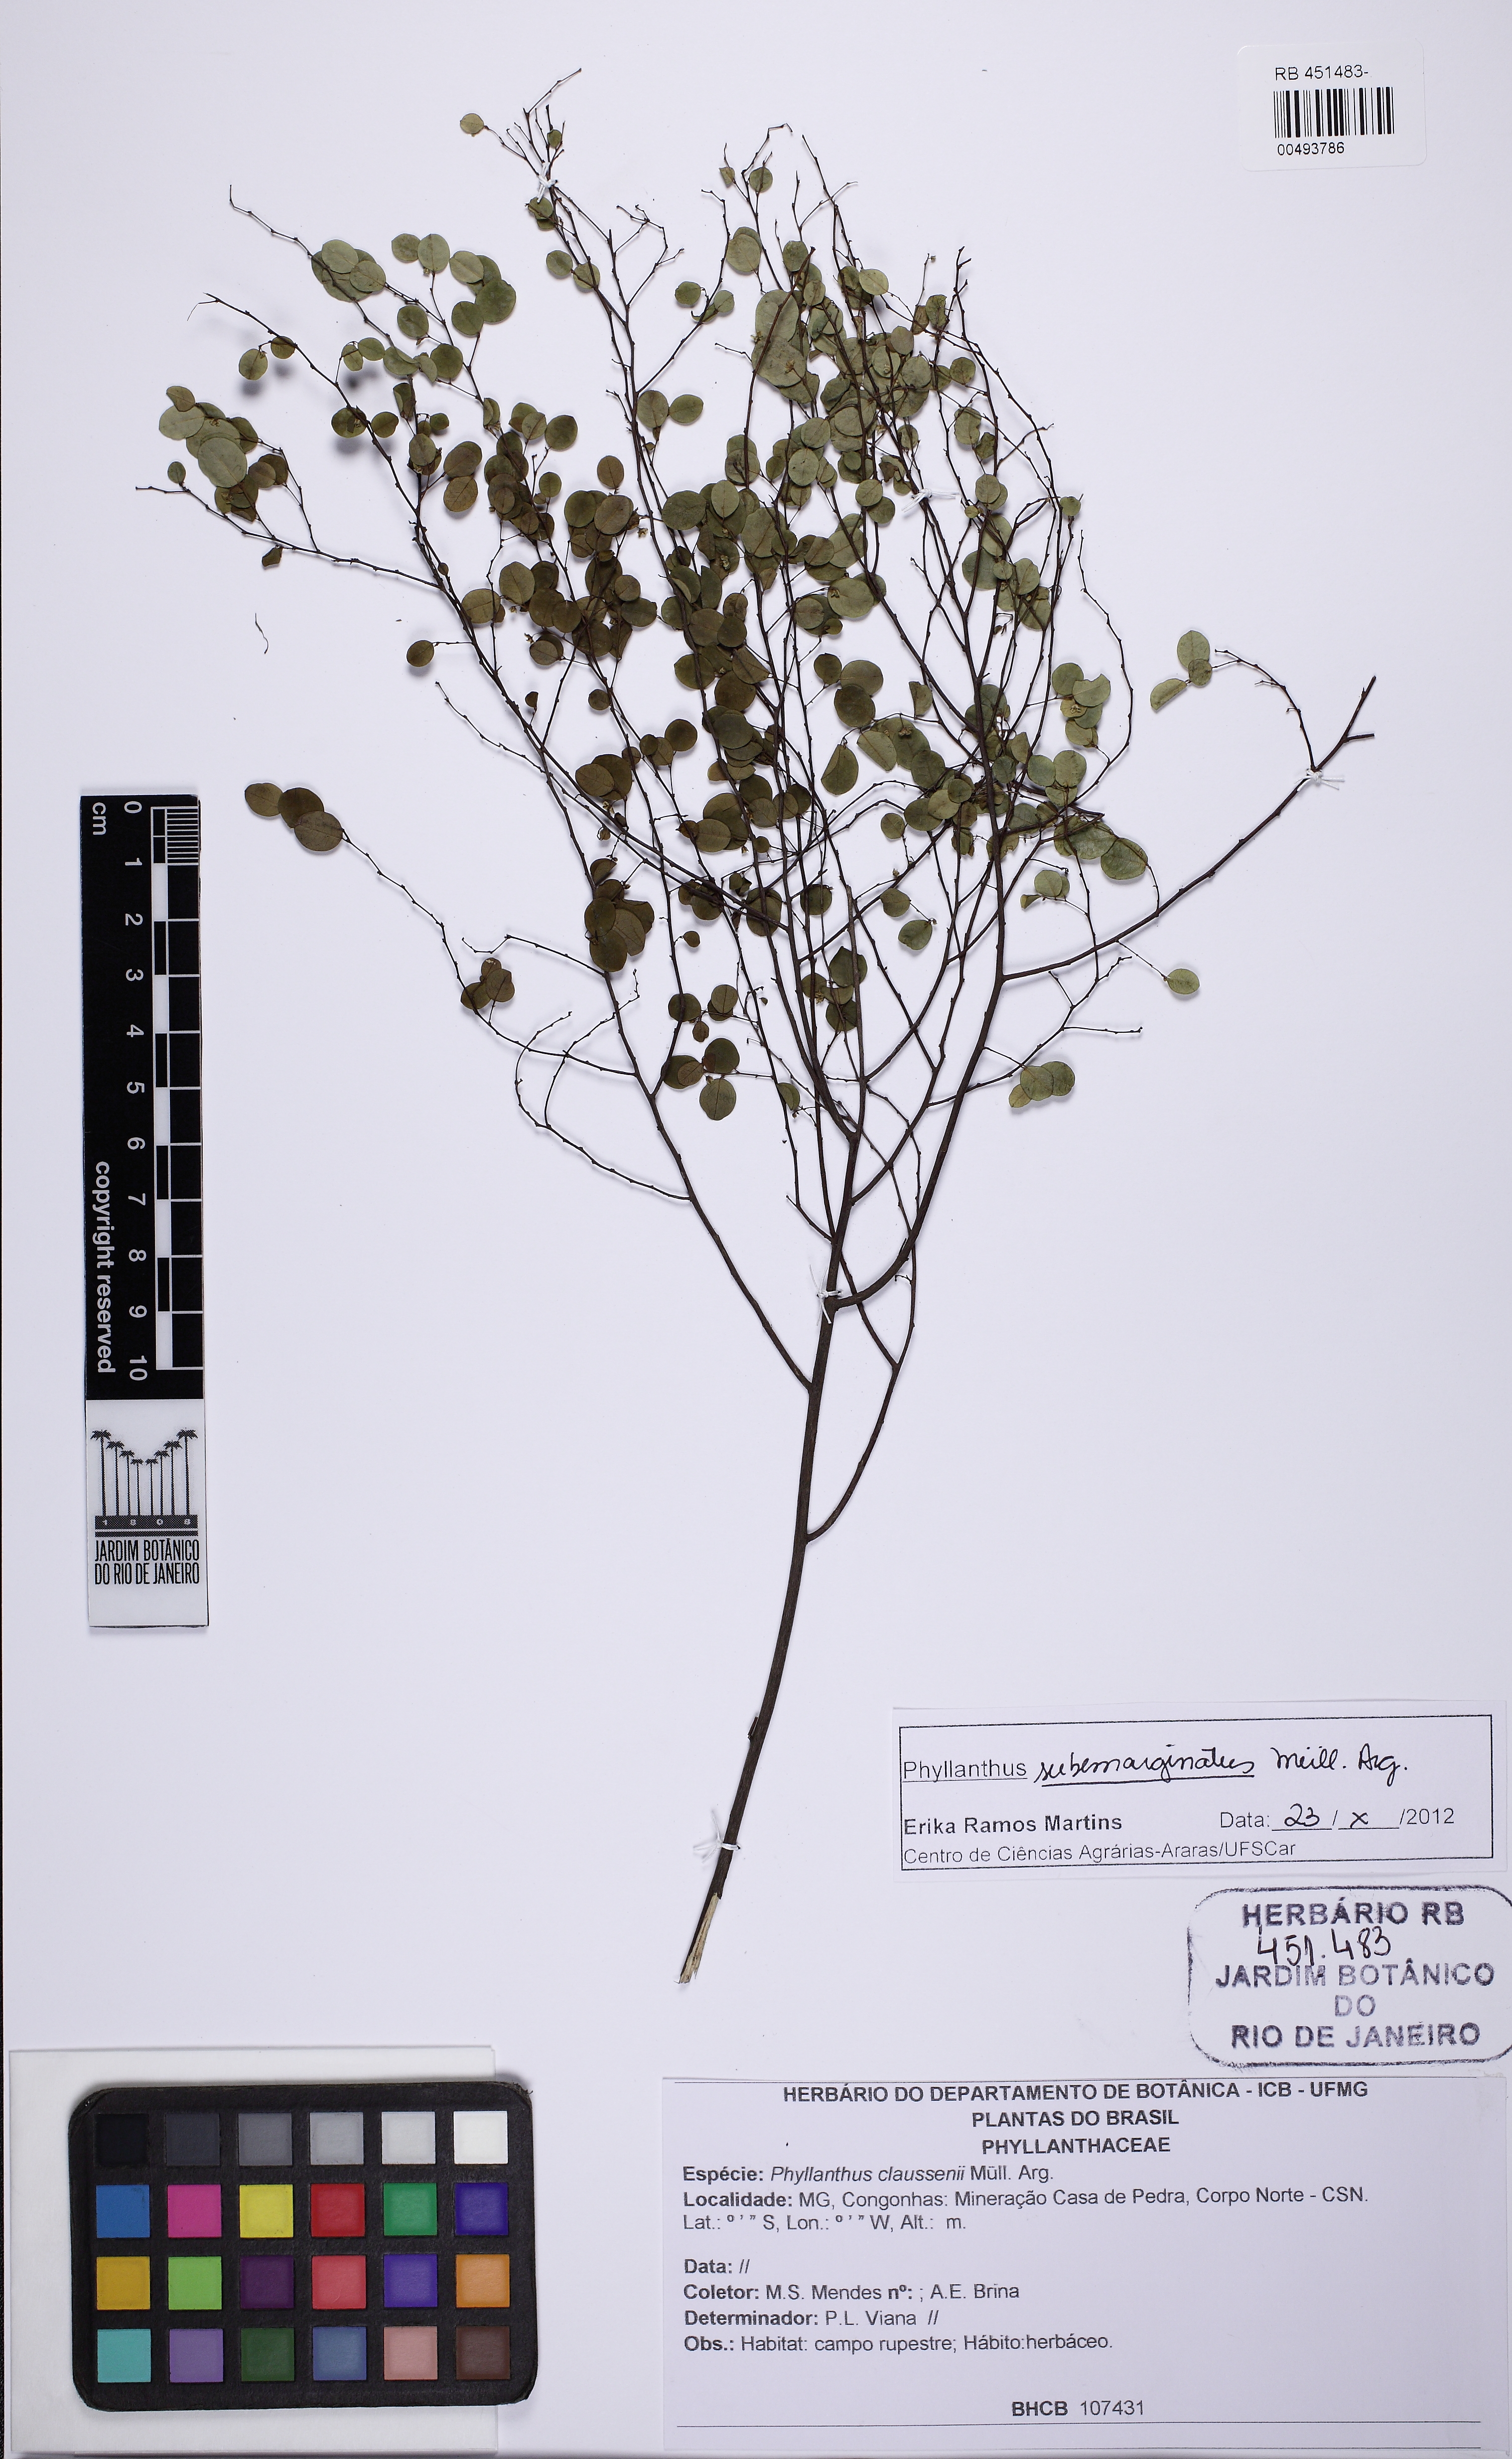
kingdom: Plantae
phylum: Tracheophyta
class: Magnoliopsida
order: Malpighiales
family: Phyllanthaceae
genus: Phyllanthus
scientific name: Phyllanthus subemarginatus
